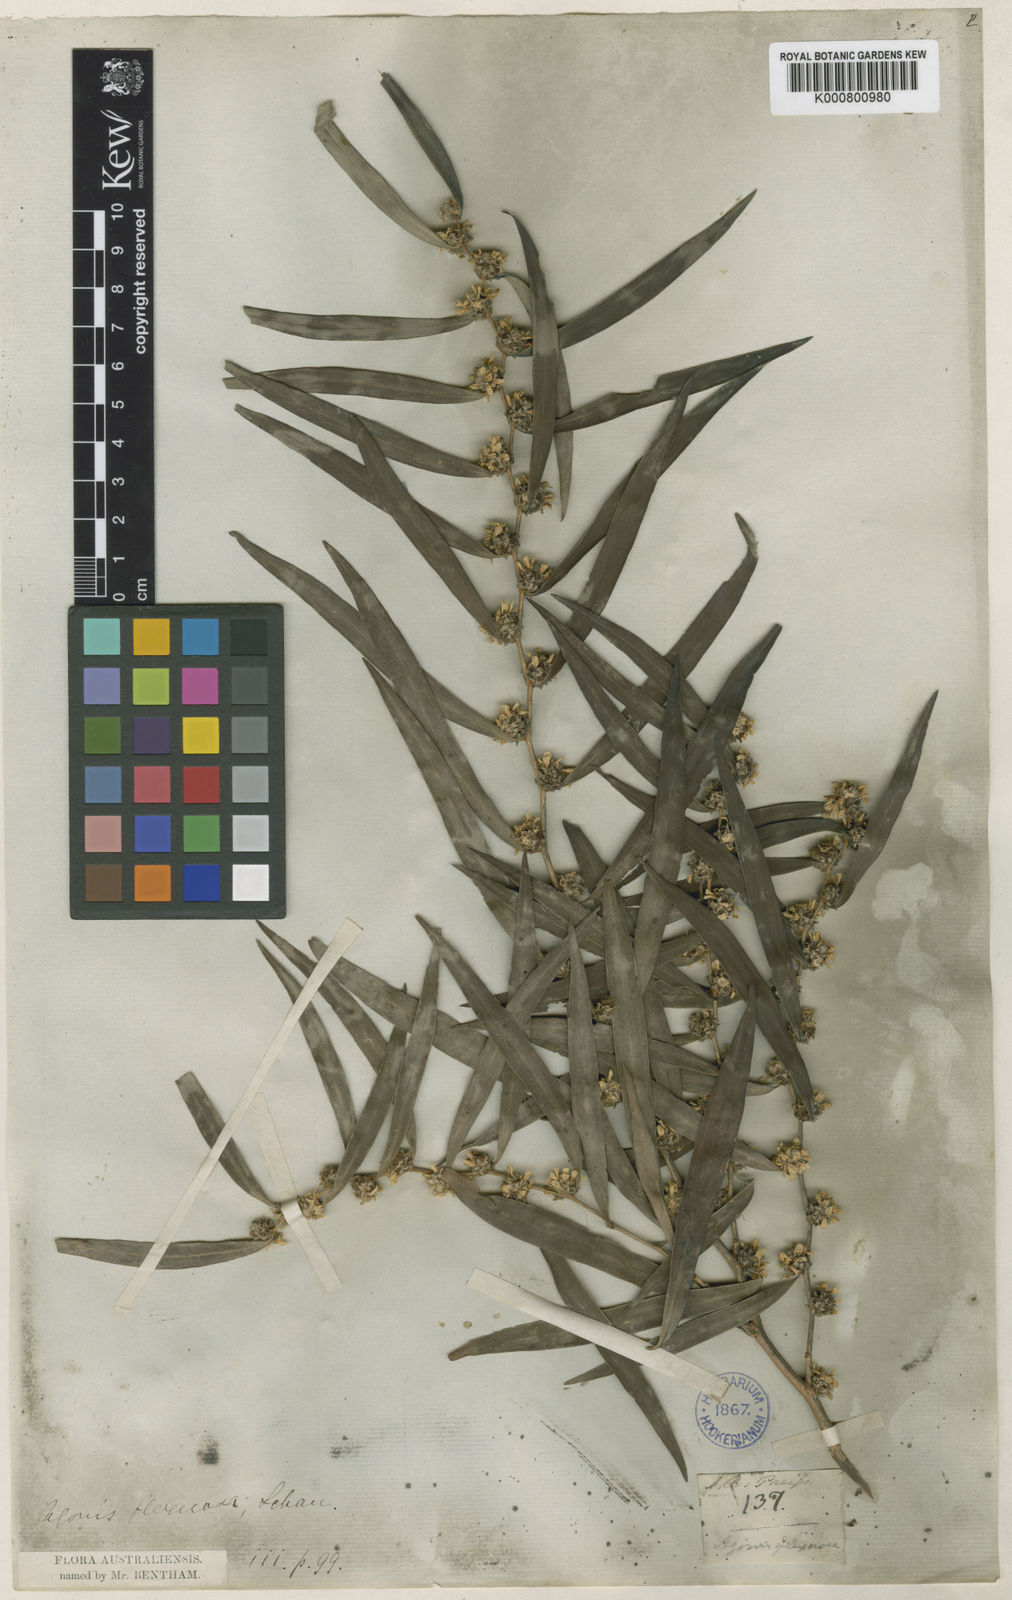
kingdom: Plantae
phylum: Tracheophyta
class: Magnoliopsida
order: Myrtales
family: Myrtaceae
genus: Agonis
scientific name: Agonis
